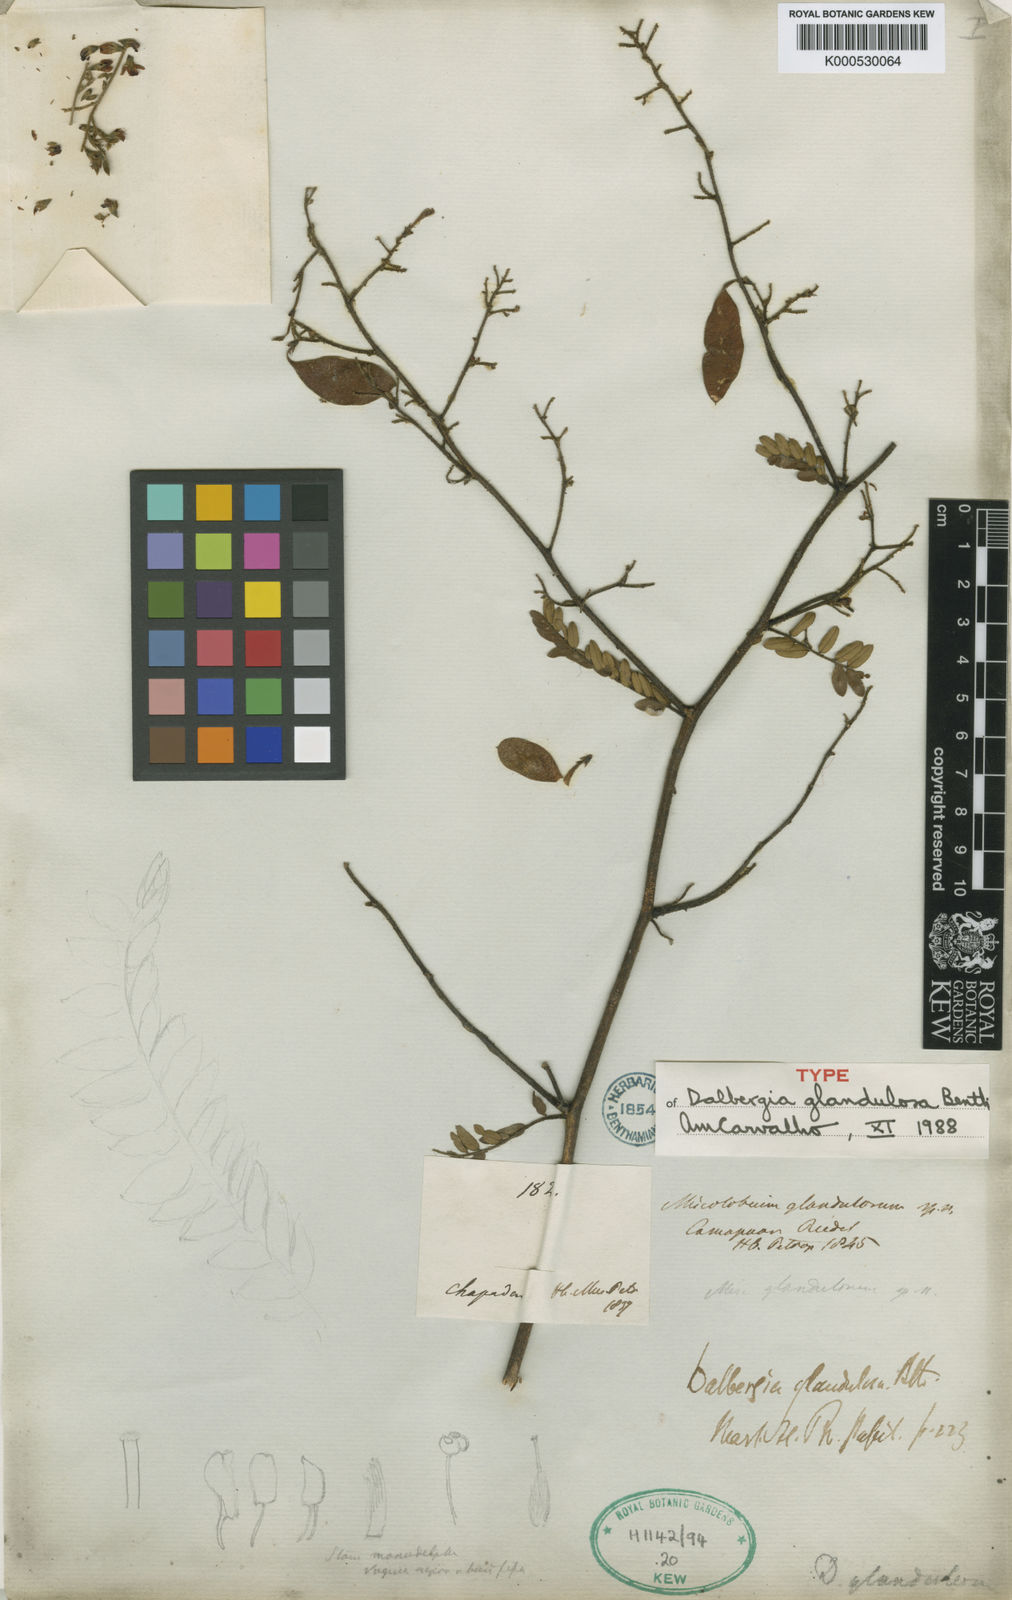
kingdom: Plantae
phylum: Tracheophyta
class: Magnoliopsida
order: Fabales
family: Fabaceae
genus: Dalbergia
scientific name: Dalbergia glandulosa
